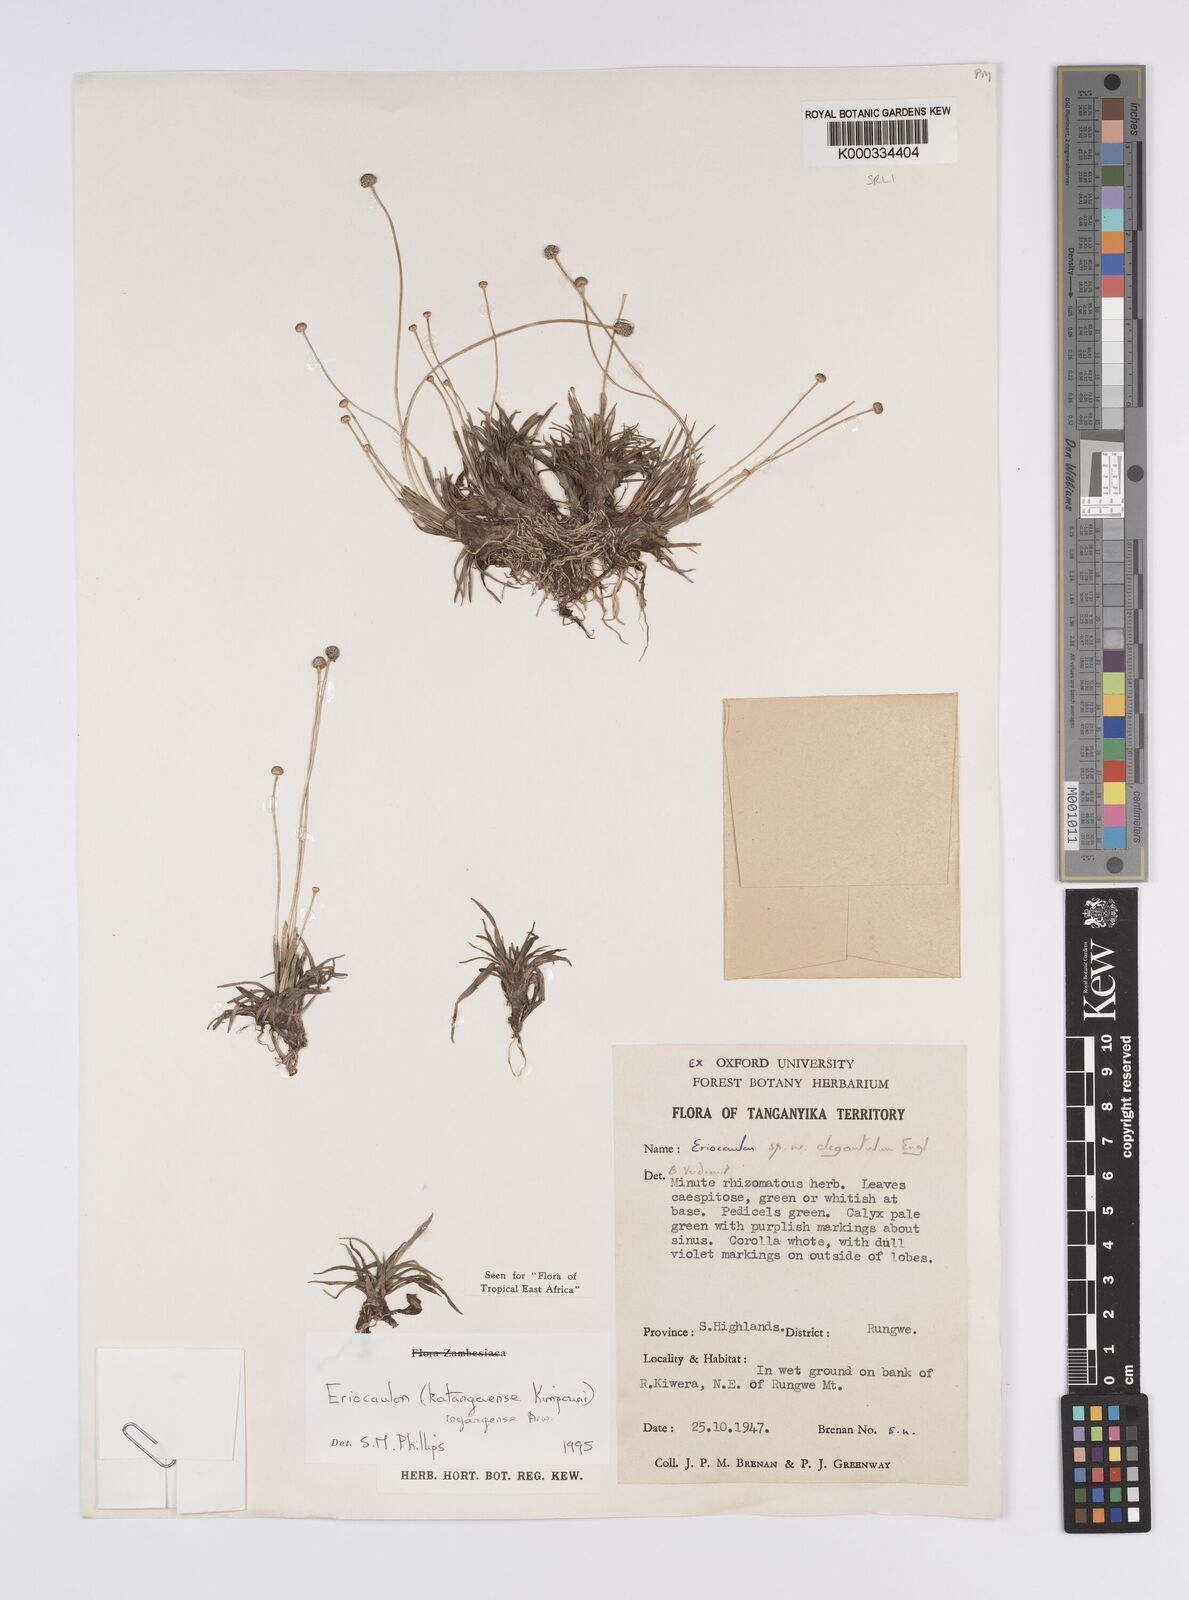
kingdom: Plantae
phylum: Tracheophyta
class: Liliopsida
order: Poales
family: Eriocaulaceae
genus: Eriocaulon
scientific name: Eriocaulon inyangense
